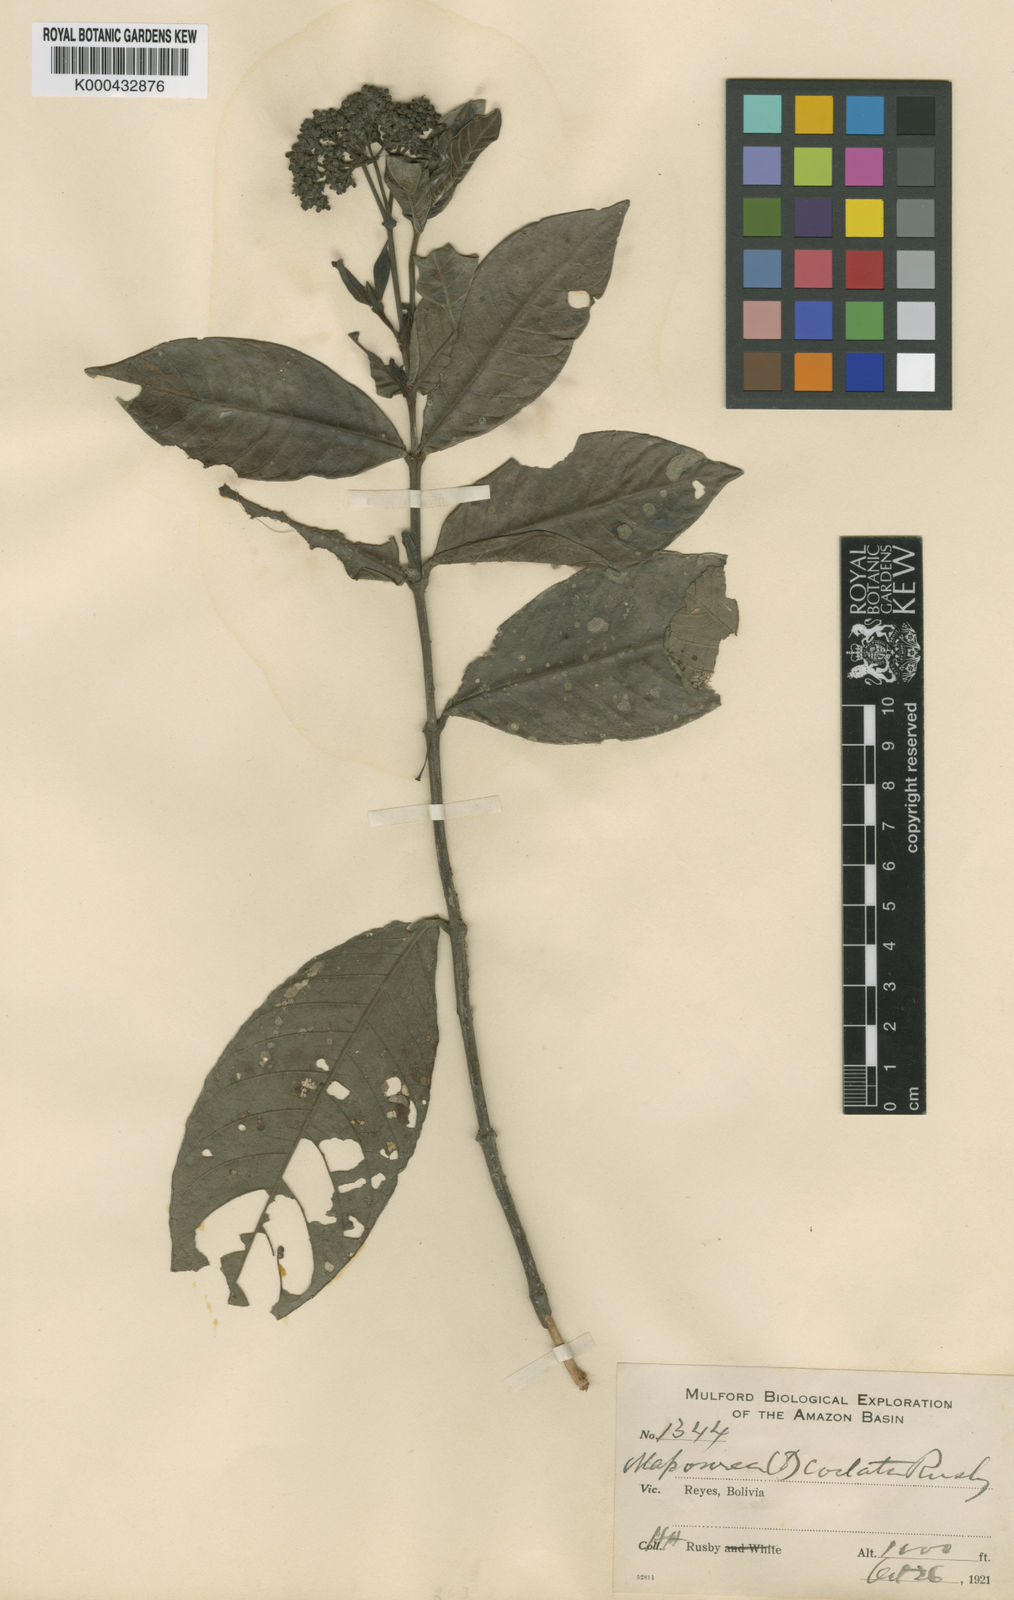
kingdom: Plantae
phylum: Tracheophyta
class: Magnoliopsida
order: Gentianales
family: Rubiaceae
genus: Psychotria
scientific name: Psychotria costata
